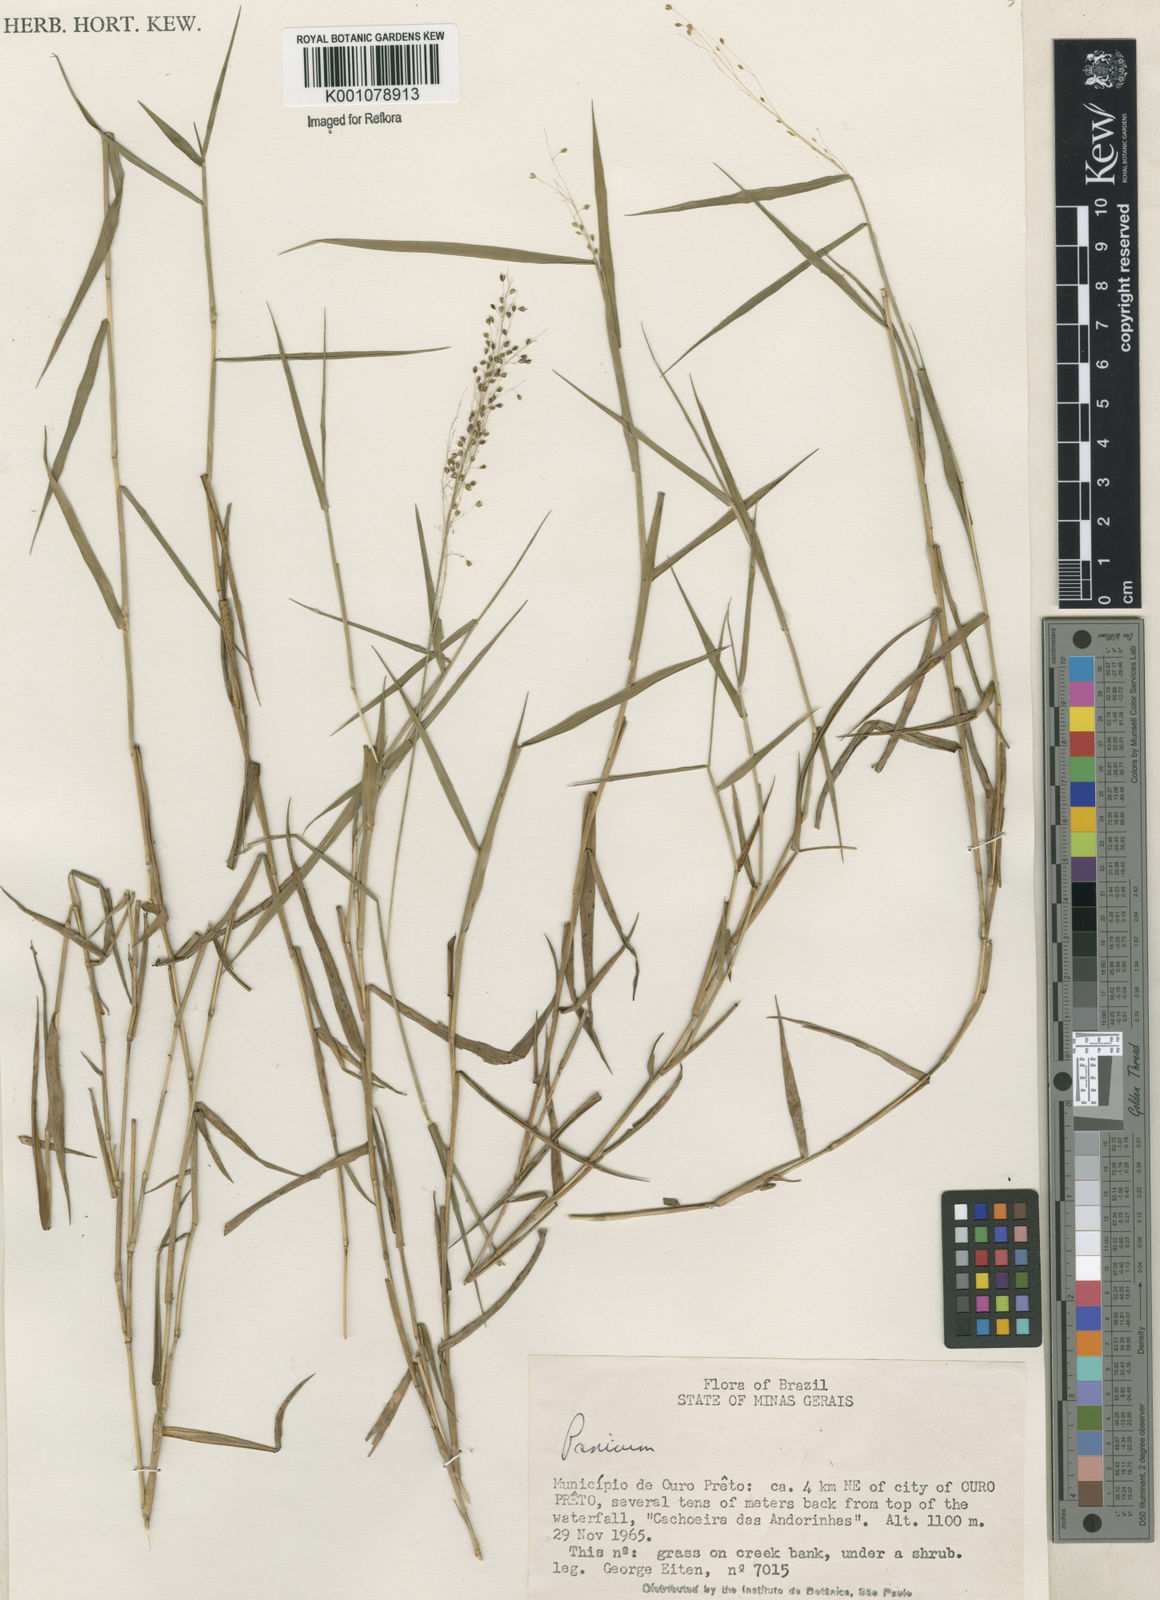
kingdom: Plantae
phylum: Tracheophyta
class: Liliopsida
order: Poales
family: Poaceae
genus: Trichanthecium
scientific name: Trichanthecium cyanescens
